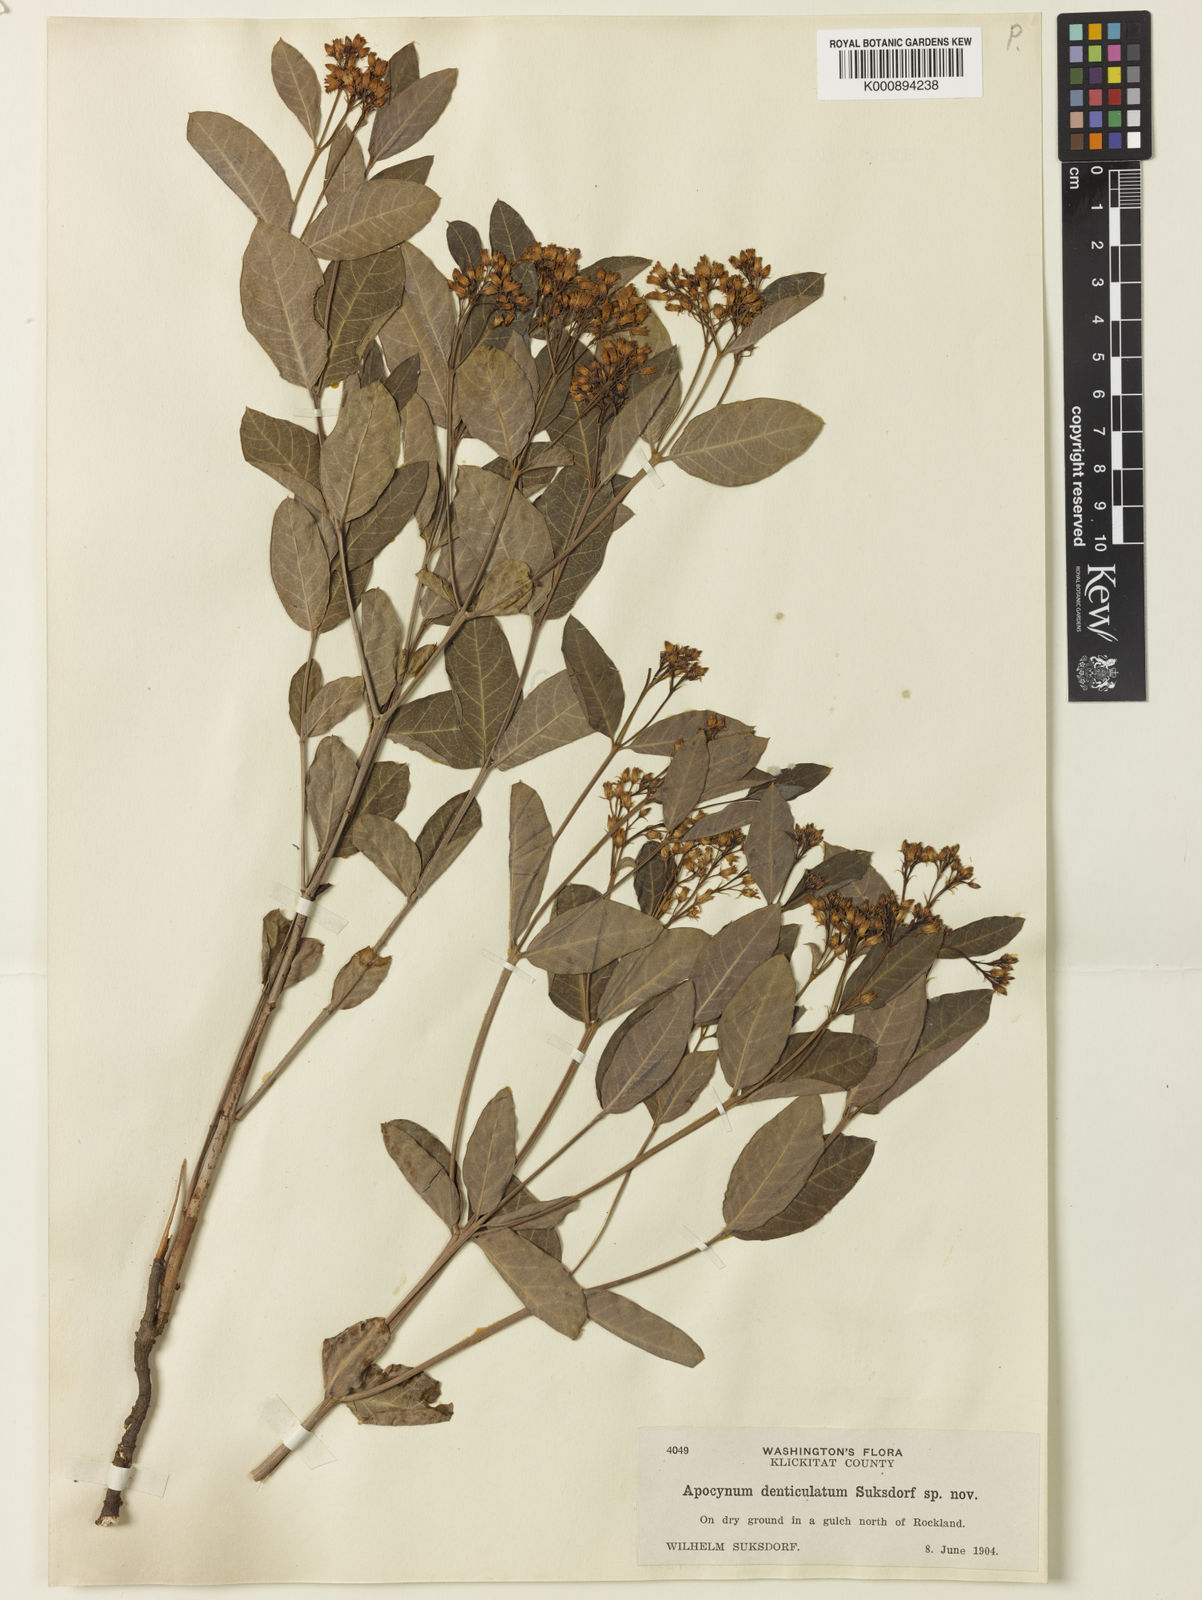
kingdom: Plantae
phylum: Tracheophyta
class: Magnoliopsida
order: Gentianales
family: Apocynaceae
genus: Apocynum
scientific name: Apocynum floribundum
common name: Hybrid dogbane
